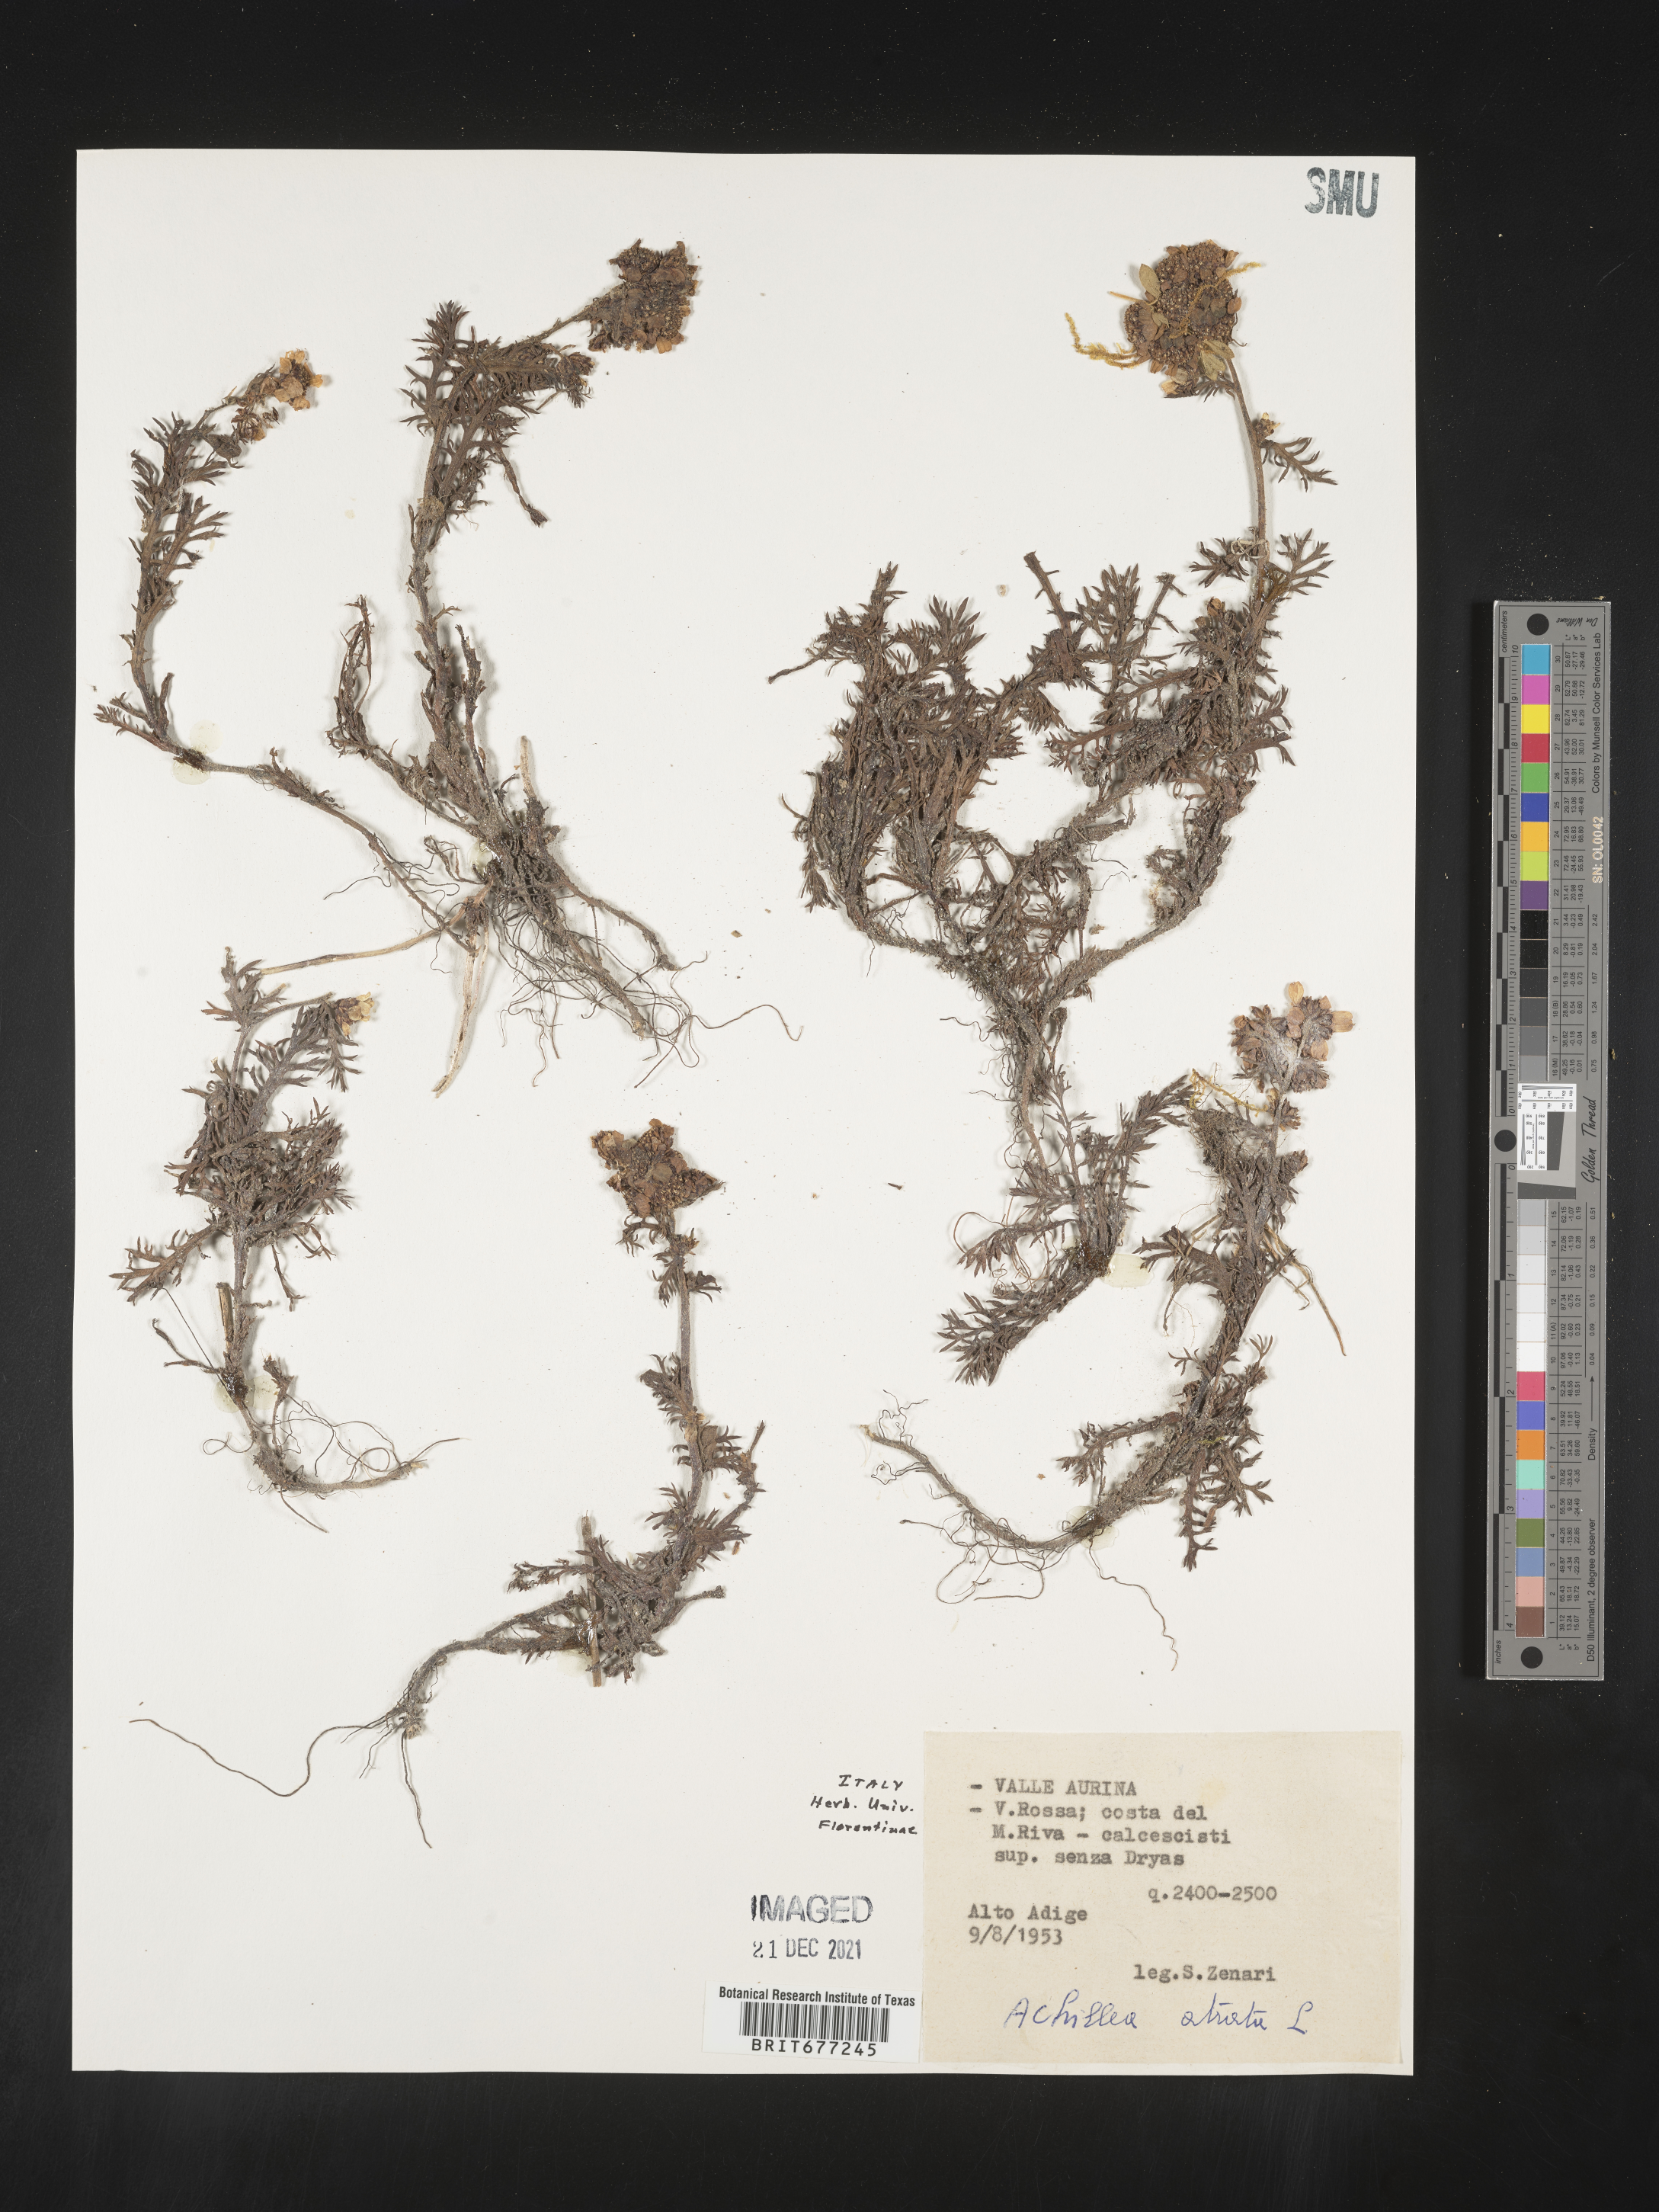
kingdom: Plantae
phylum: Tracheophyta
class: Magnoliopsida
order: Asterales
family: Asteraceae
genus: Achillea
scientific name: Achillea
